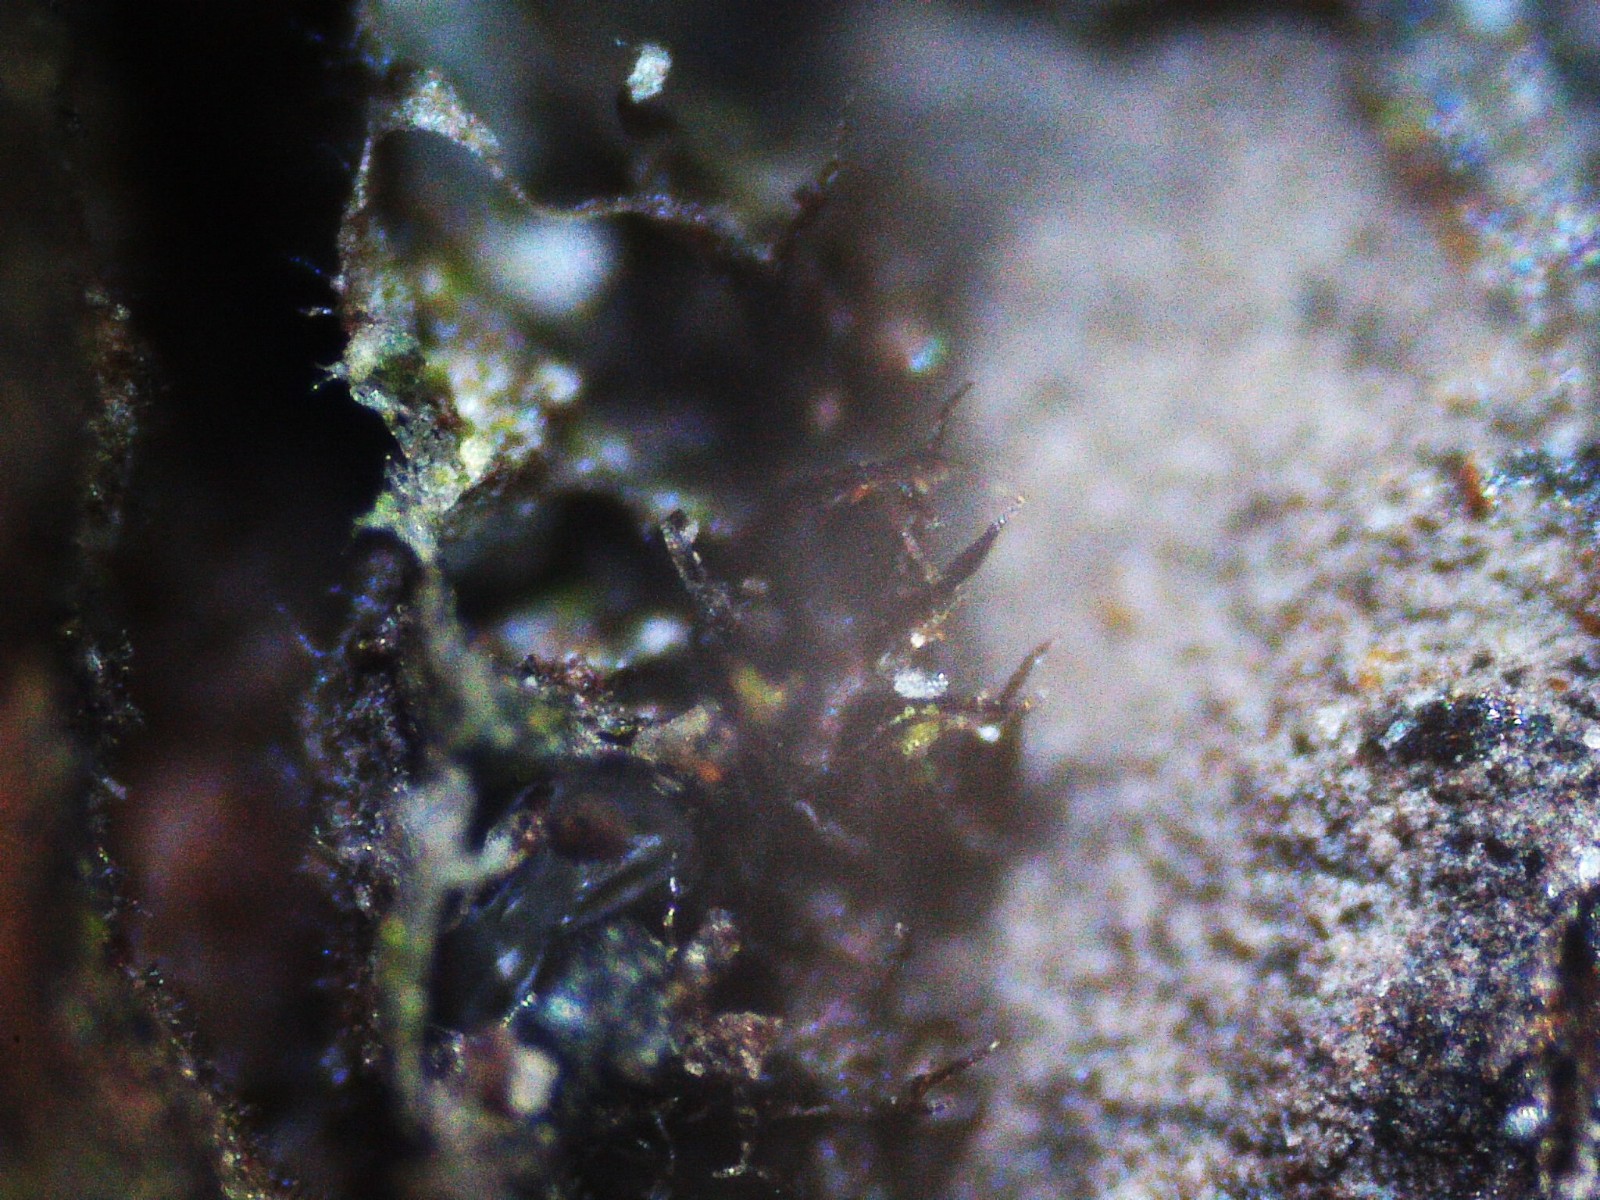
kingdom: Fungi
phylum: Basidiomycota
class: Agaricomycetes
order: Agaricales
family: Pleurotaceae
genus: Resupinatus
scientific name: Resupinatus trichotis
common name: mørkfiltet barkhat
